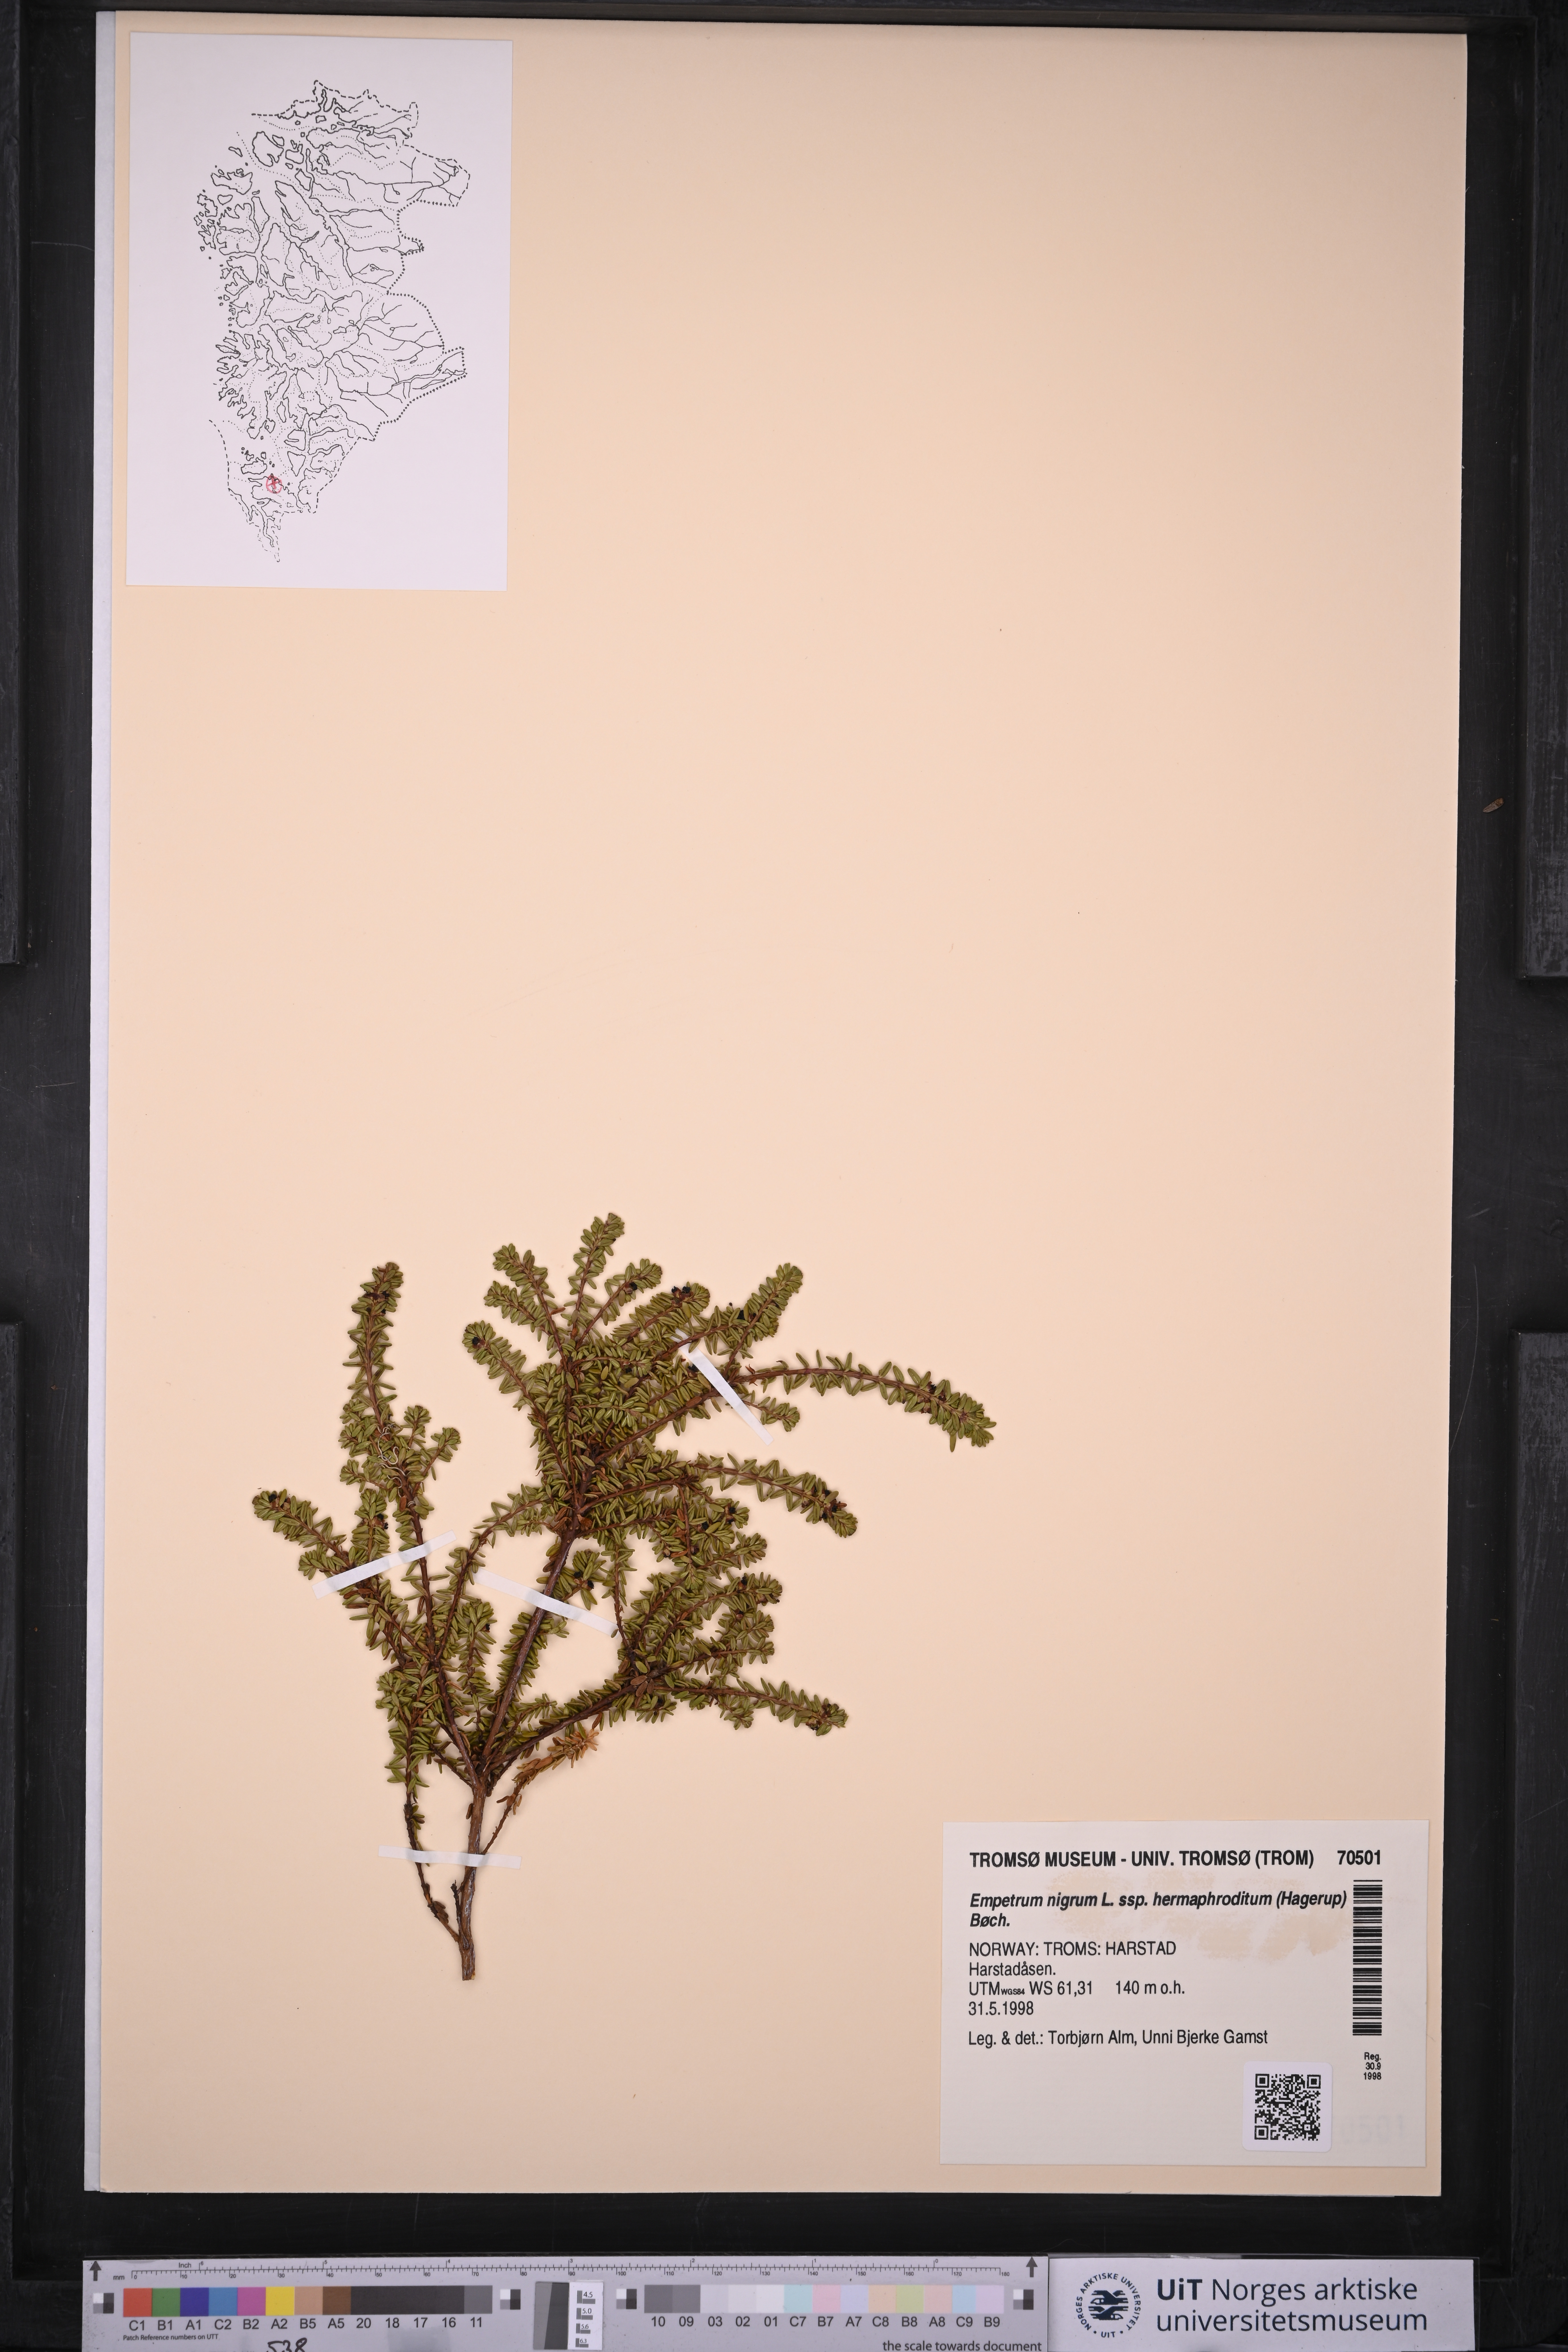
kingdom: Plantae
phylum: Tracheophyta
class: Magnoliopsida
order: Ericales
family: Ericaceae
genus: Empetrum
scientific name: Empetrum hermaphroditum
